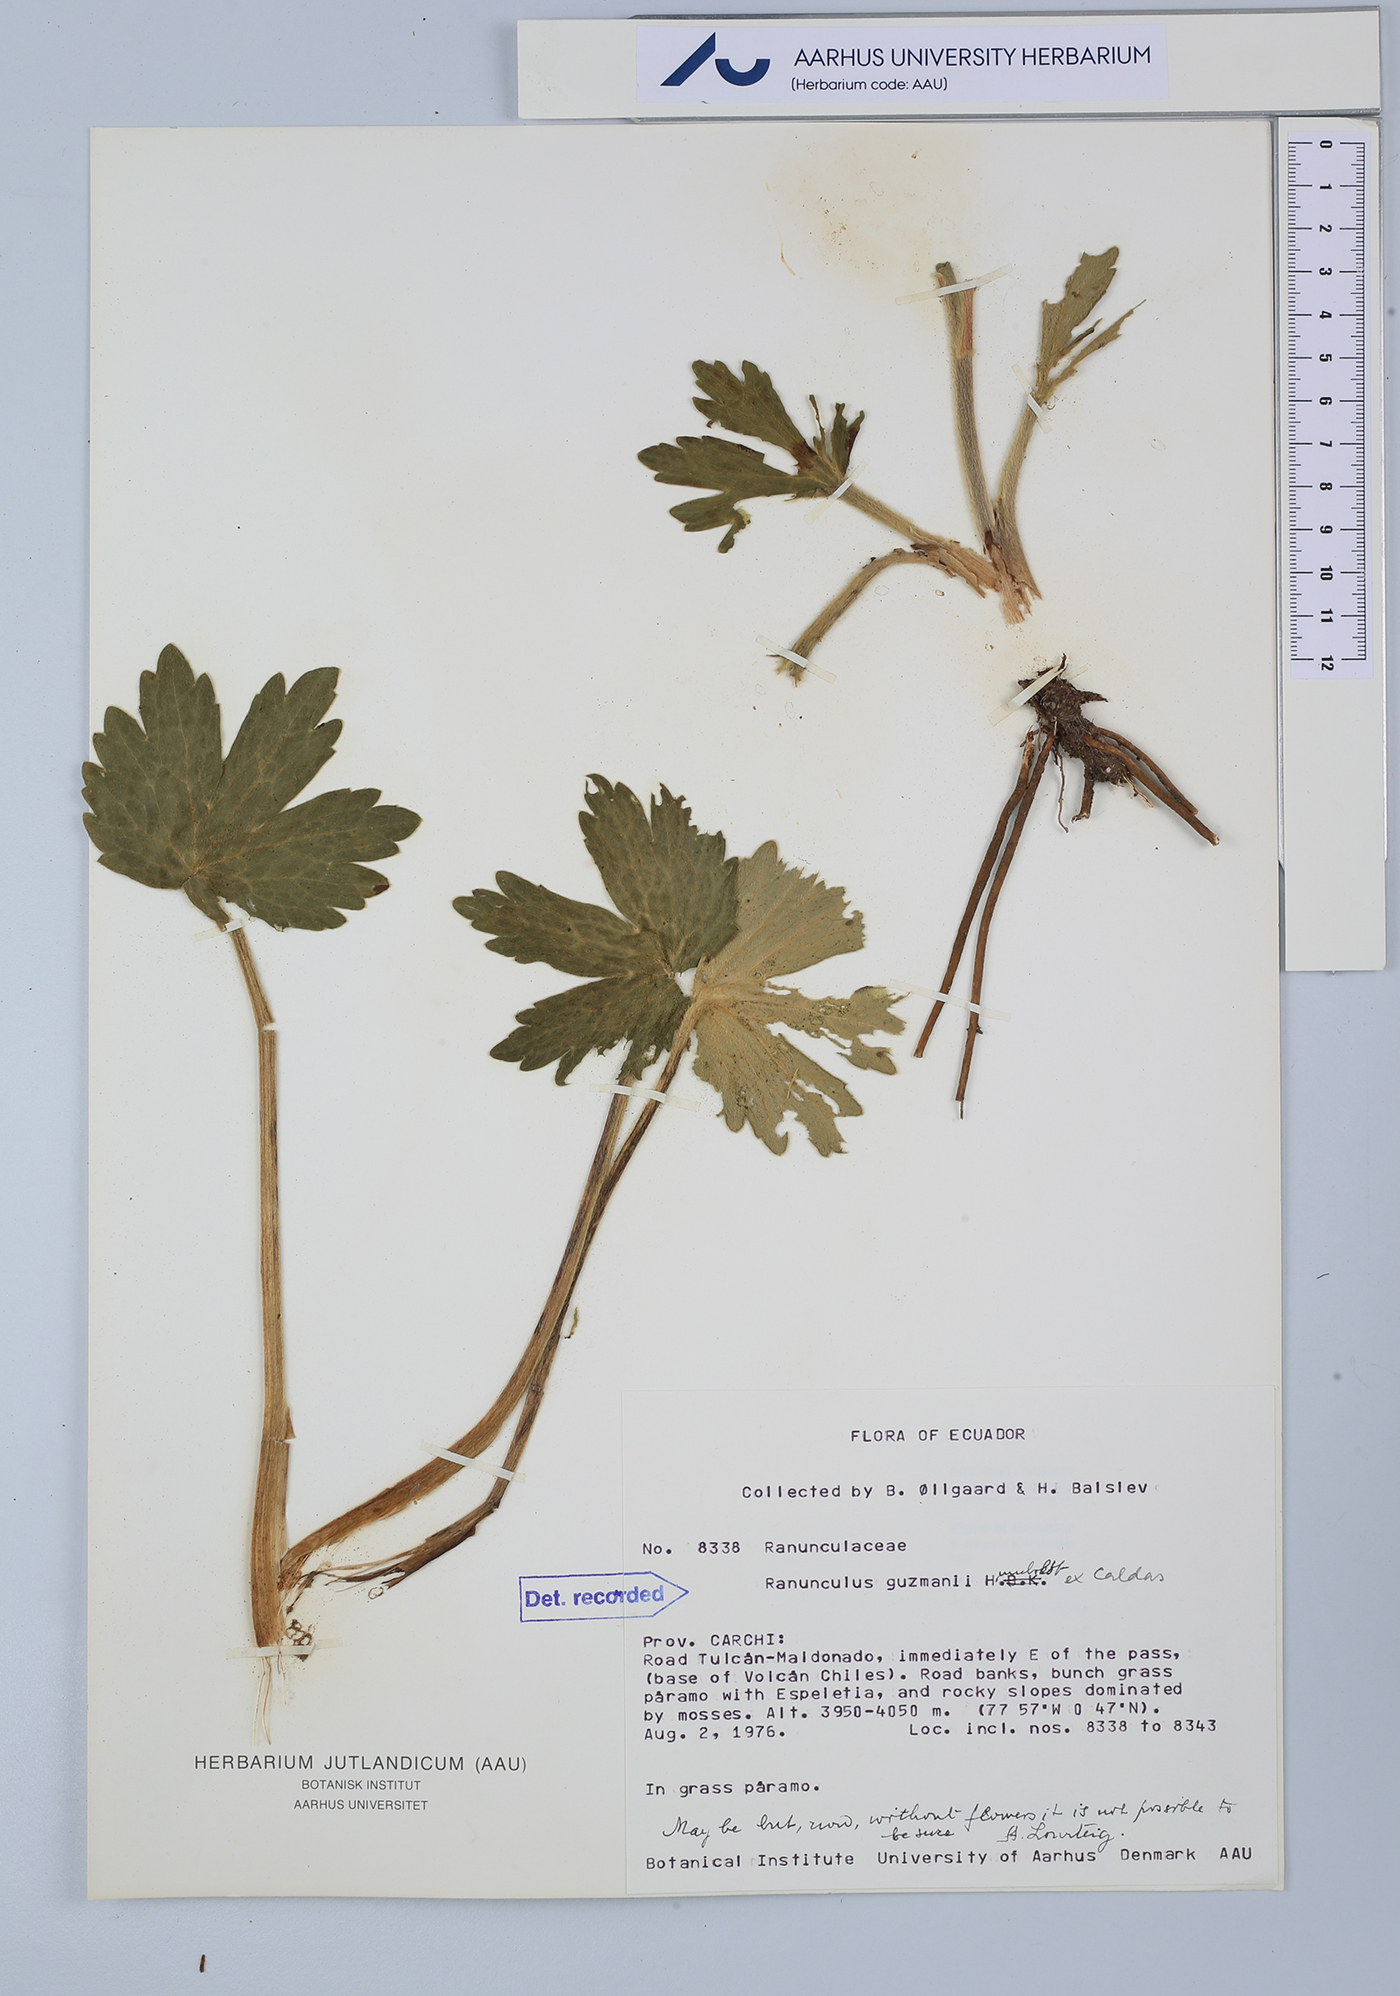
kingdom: Plantae
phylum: Tracheophyta
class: Magnoliopsida
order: Ranunculales
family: Ranunculaceae
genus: Krapfia
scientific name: Krapfia ranunculina
